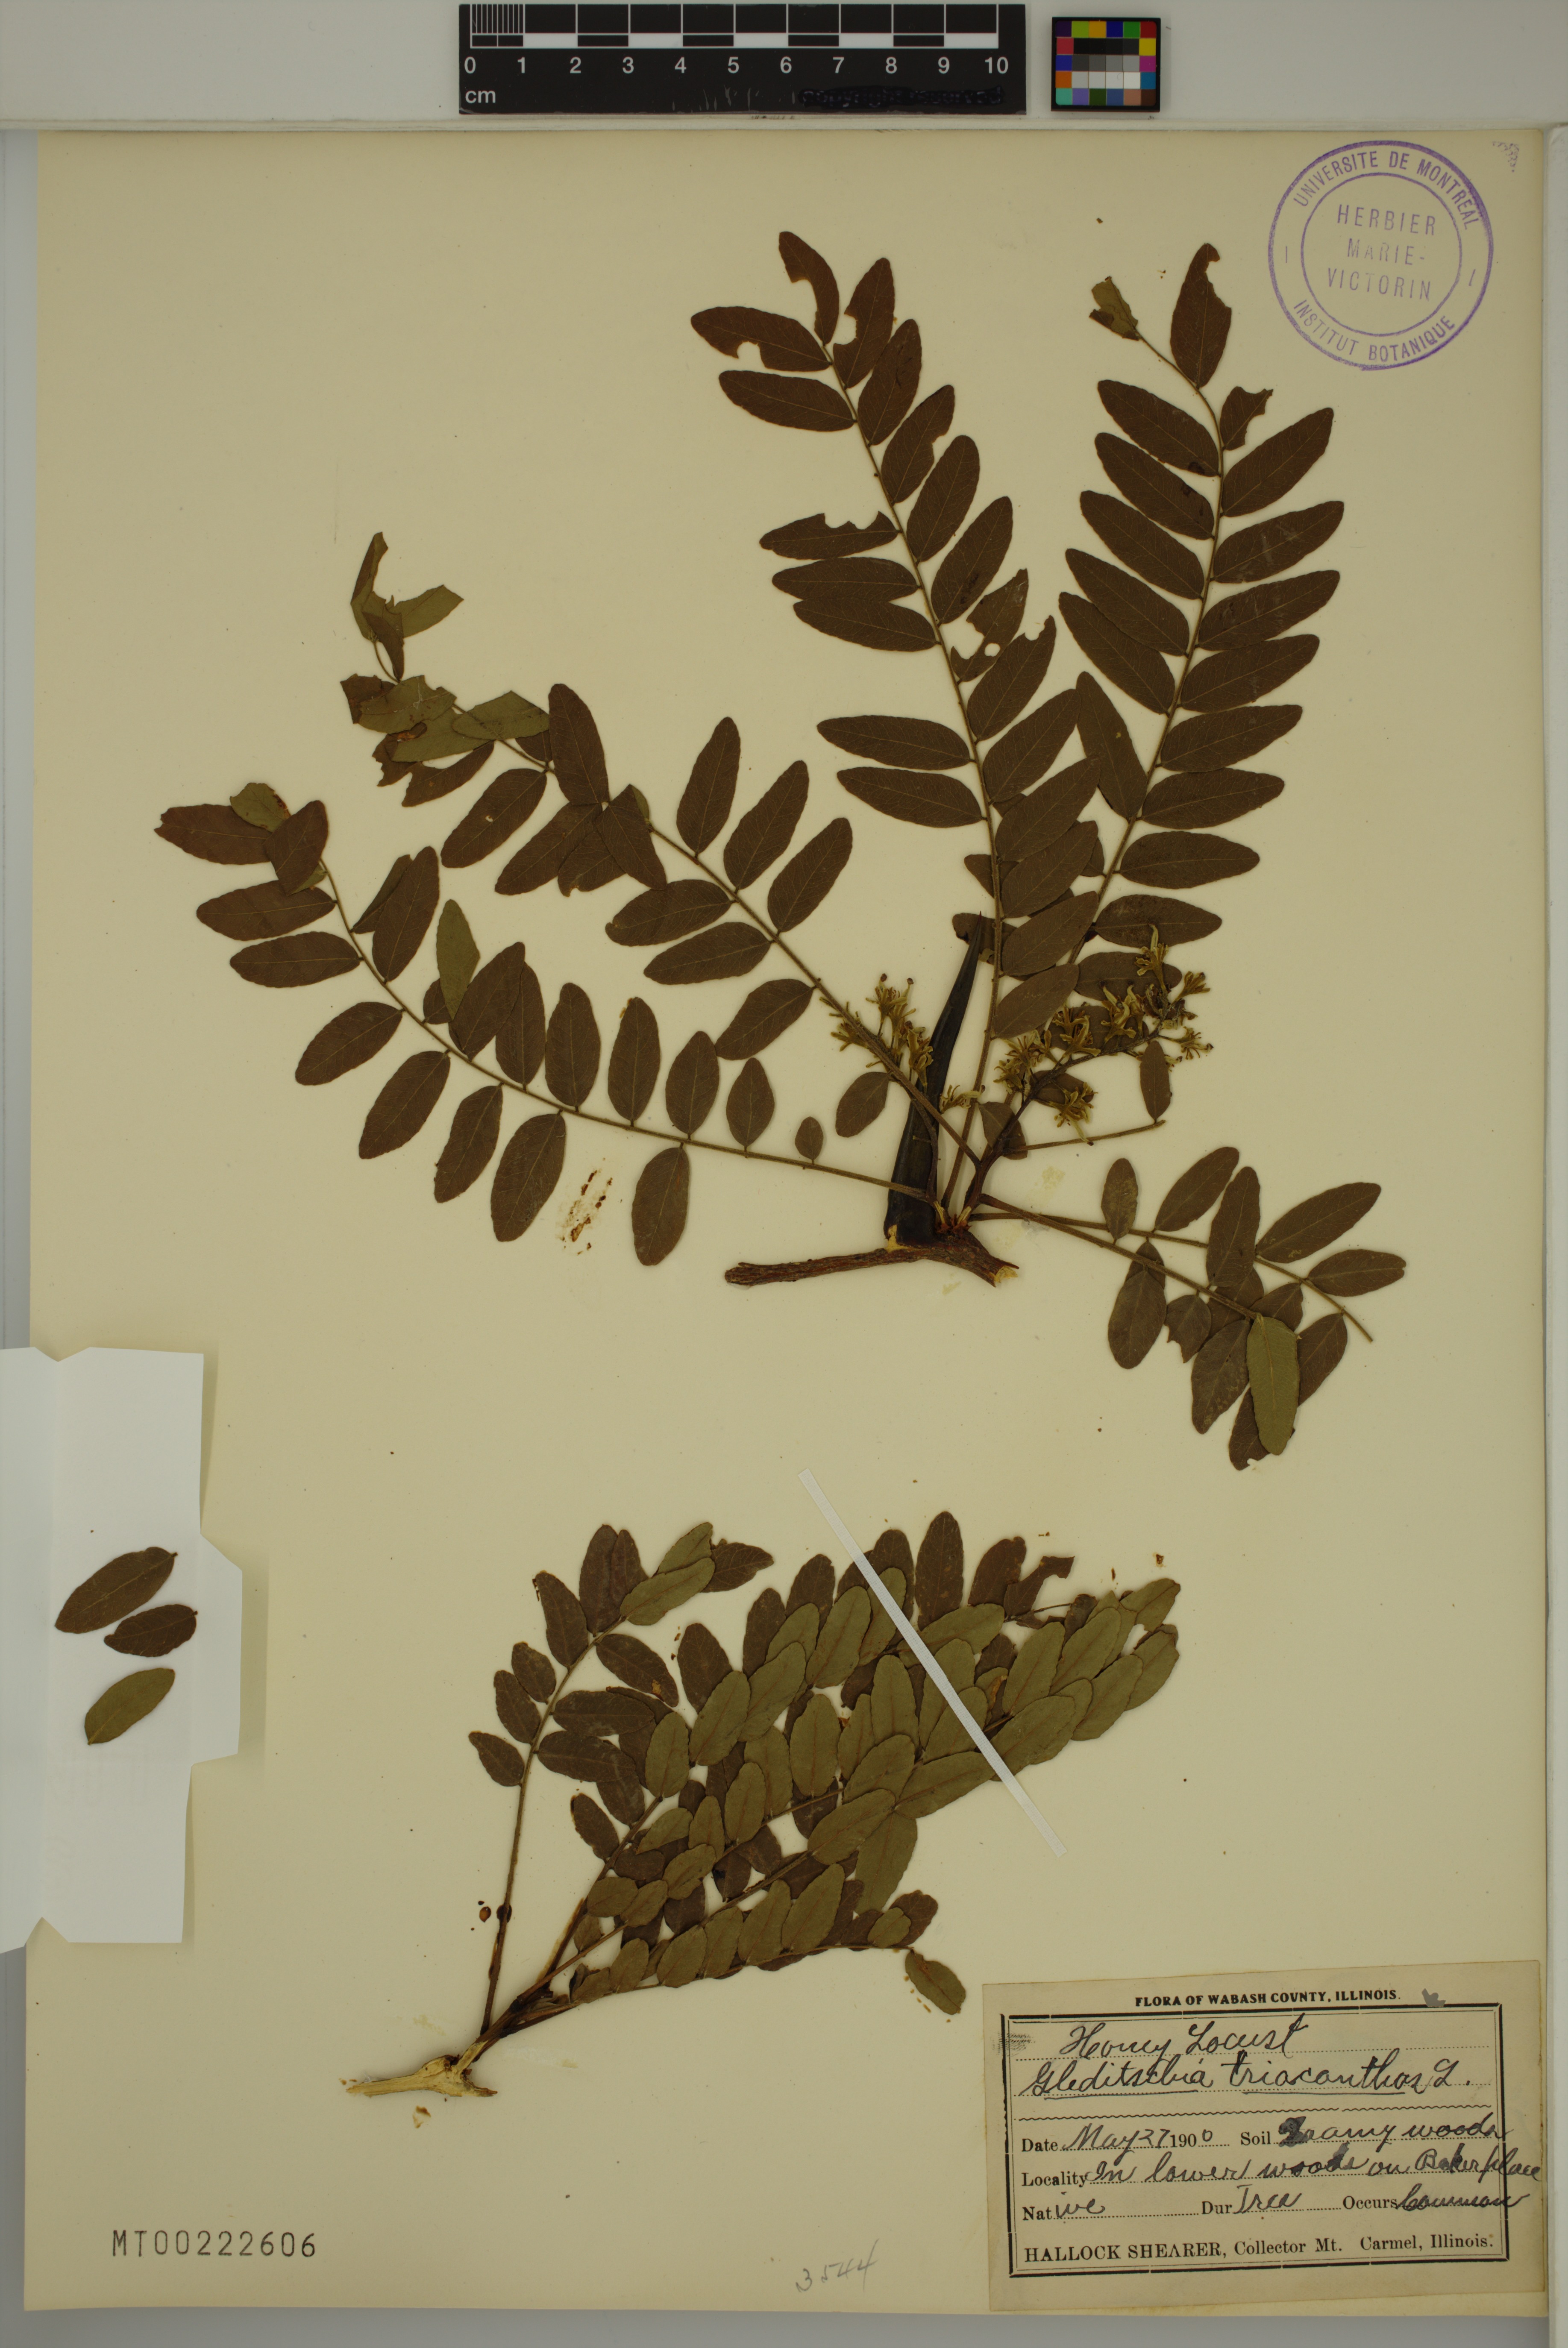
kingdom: Plantae
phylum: Tracheophyta
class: Magnoliopsida
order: Fabales
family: Fabaceae
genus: Gleditsia
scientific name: Gleditsia triacanthos
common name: Common honeylocust
